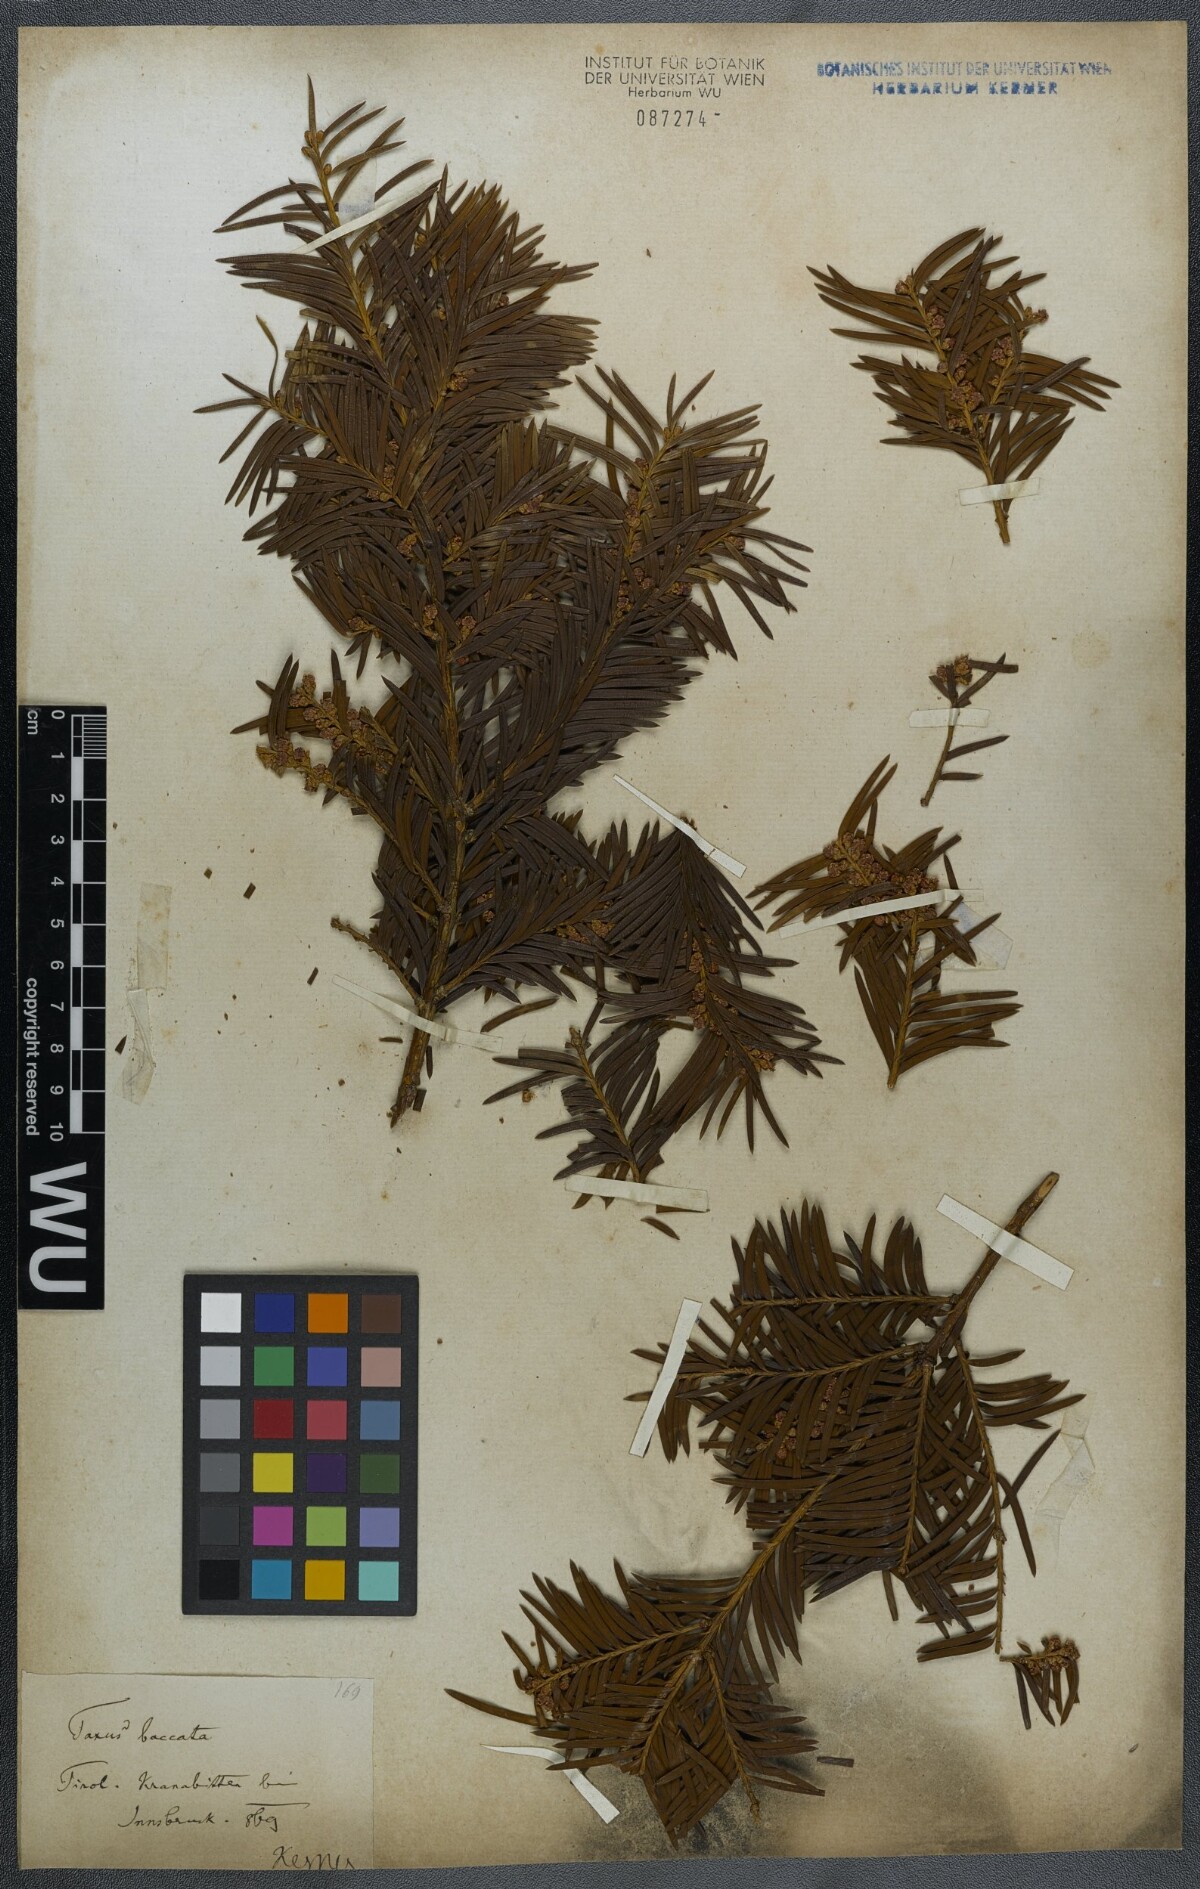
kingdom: Plantae
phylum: Tracheophyta
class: Pinopsida
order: Pinales
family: Taxaceae
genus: Taxus
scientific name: Taxus baccata
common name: Yew
